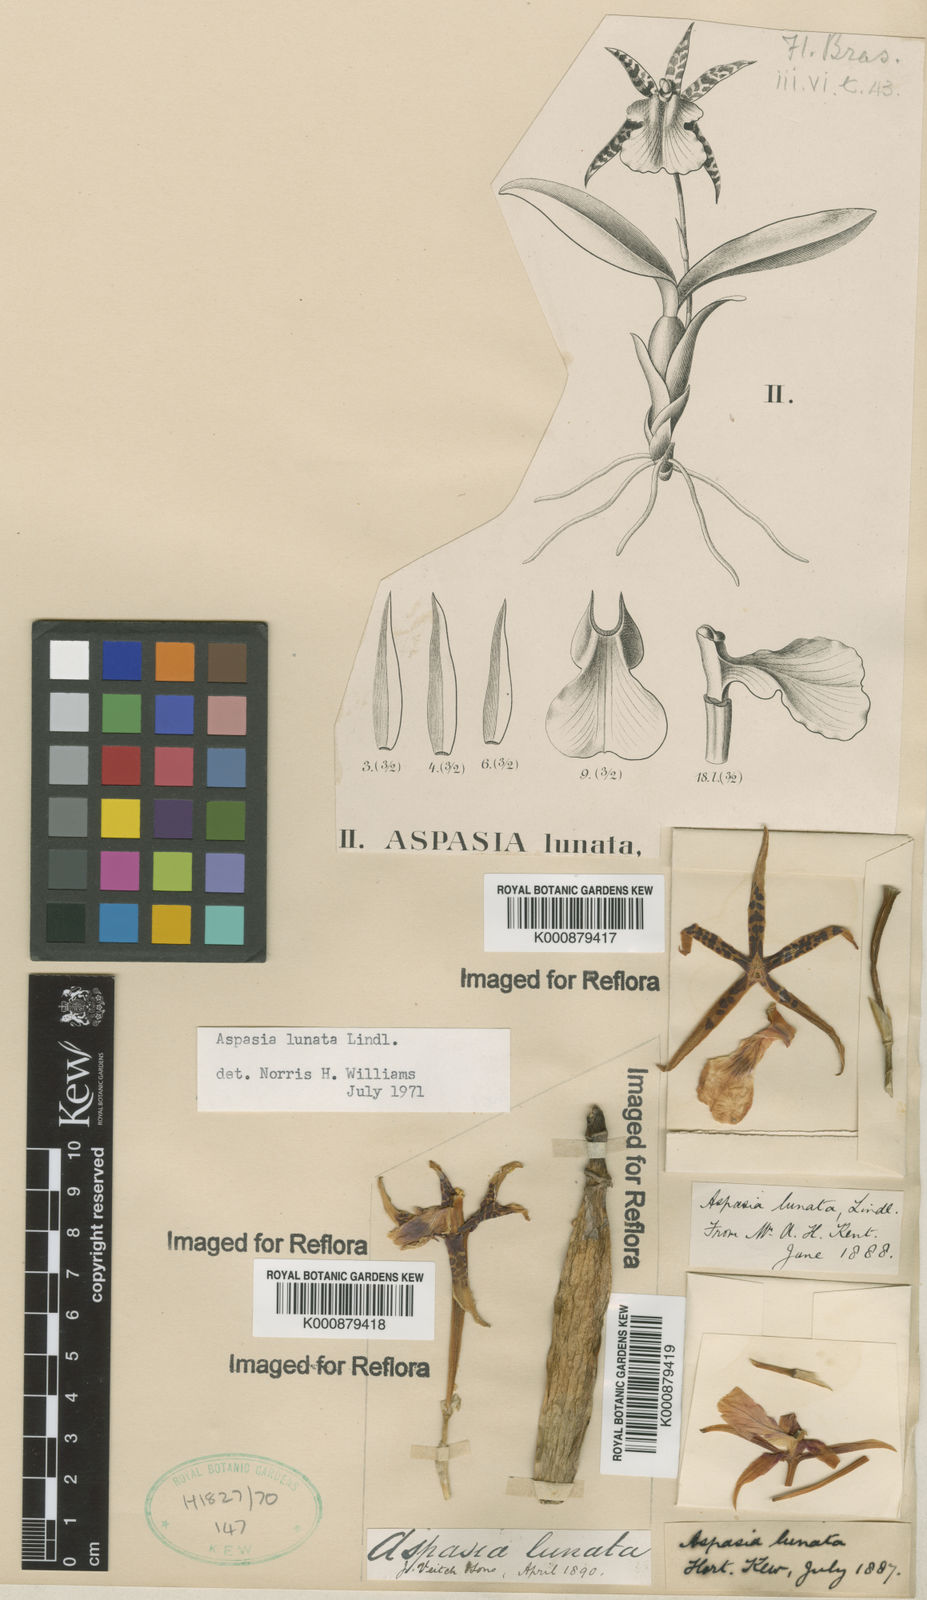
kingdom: Plantae
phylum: Tracheophyta
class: Liliopsida
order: Asparagales
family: Orchidaceae
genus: Aspasia
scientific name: Aspasia lunata
